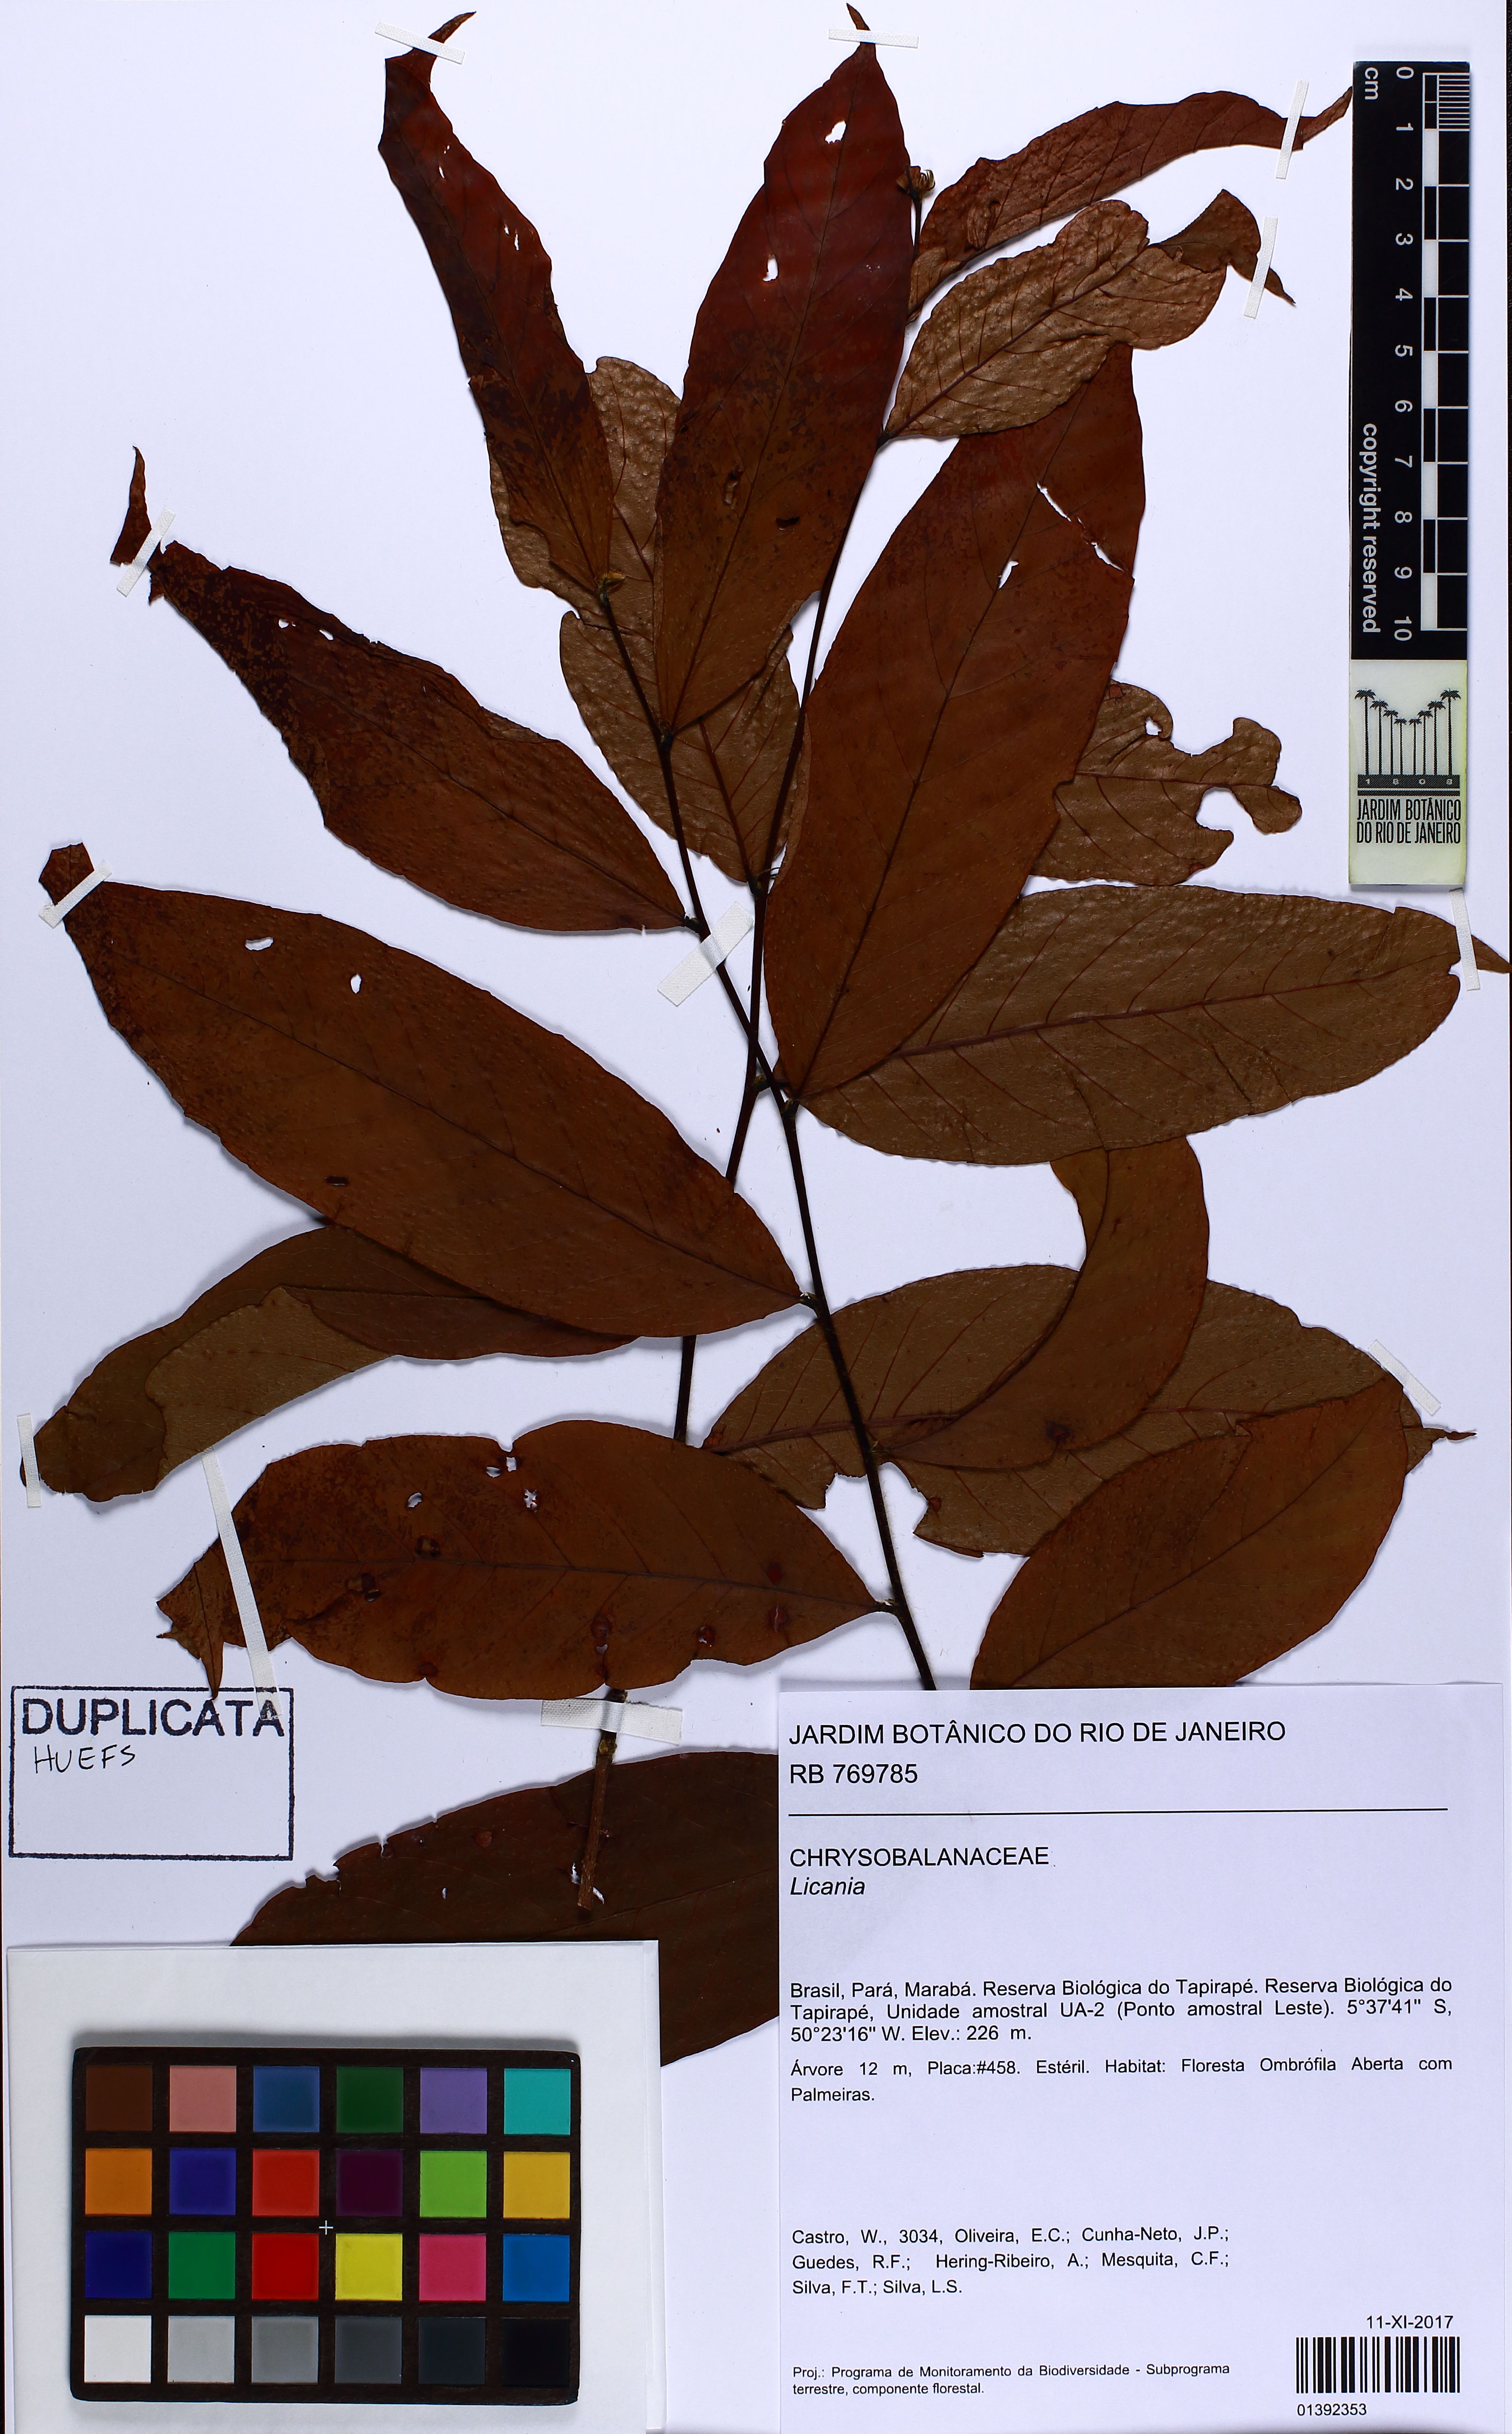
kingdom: Plantae
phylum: Tracheophyta
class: Magnoliopsida
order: Malpighiales
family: Chrysobalanaceae
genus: Licania
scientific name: Licania
